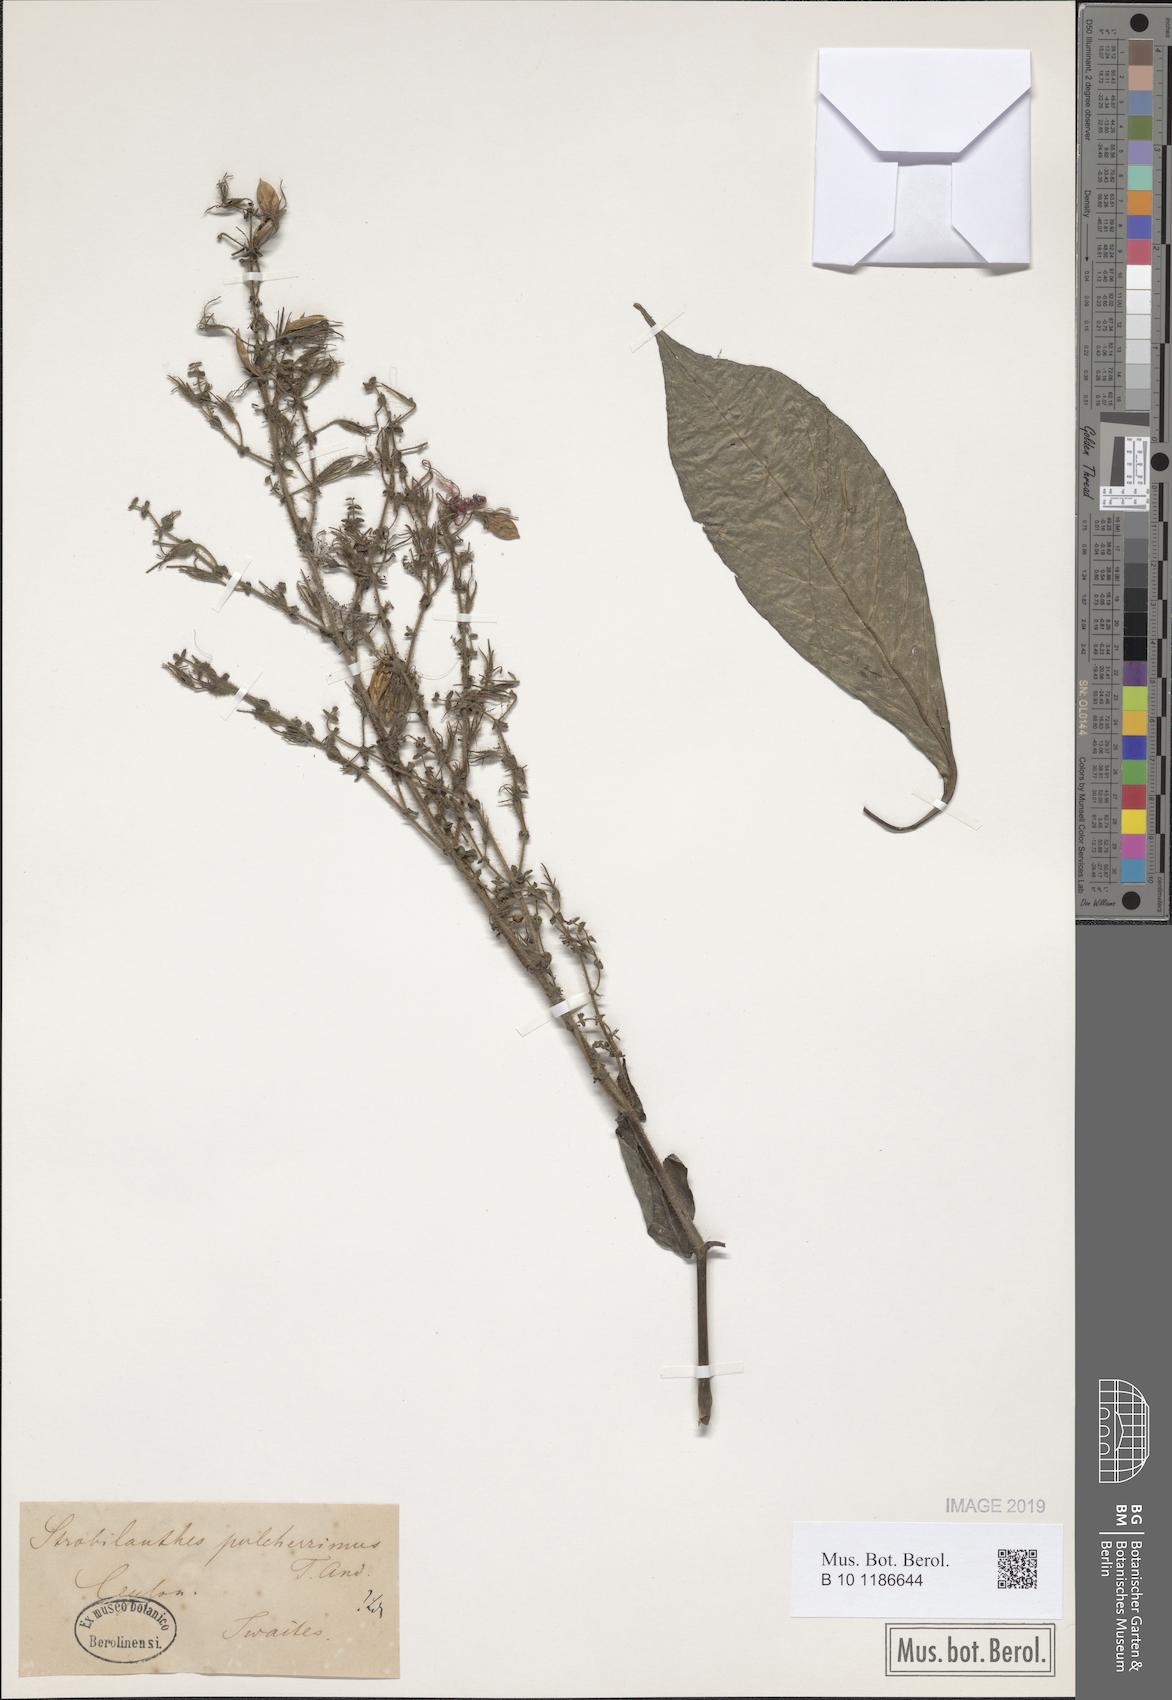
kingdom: Plantae
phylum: Tracheophyta
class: Magnoliopsida
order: Lamiales
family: Acanthaceae
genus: Strobilanthes
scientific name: Strobilanthes pulcherrima
